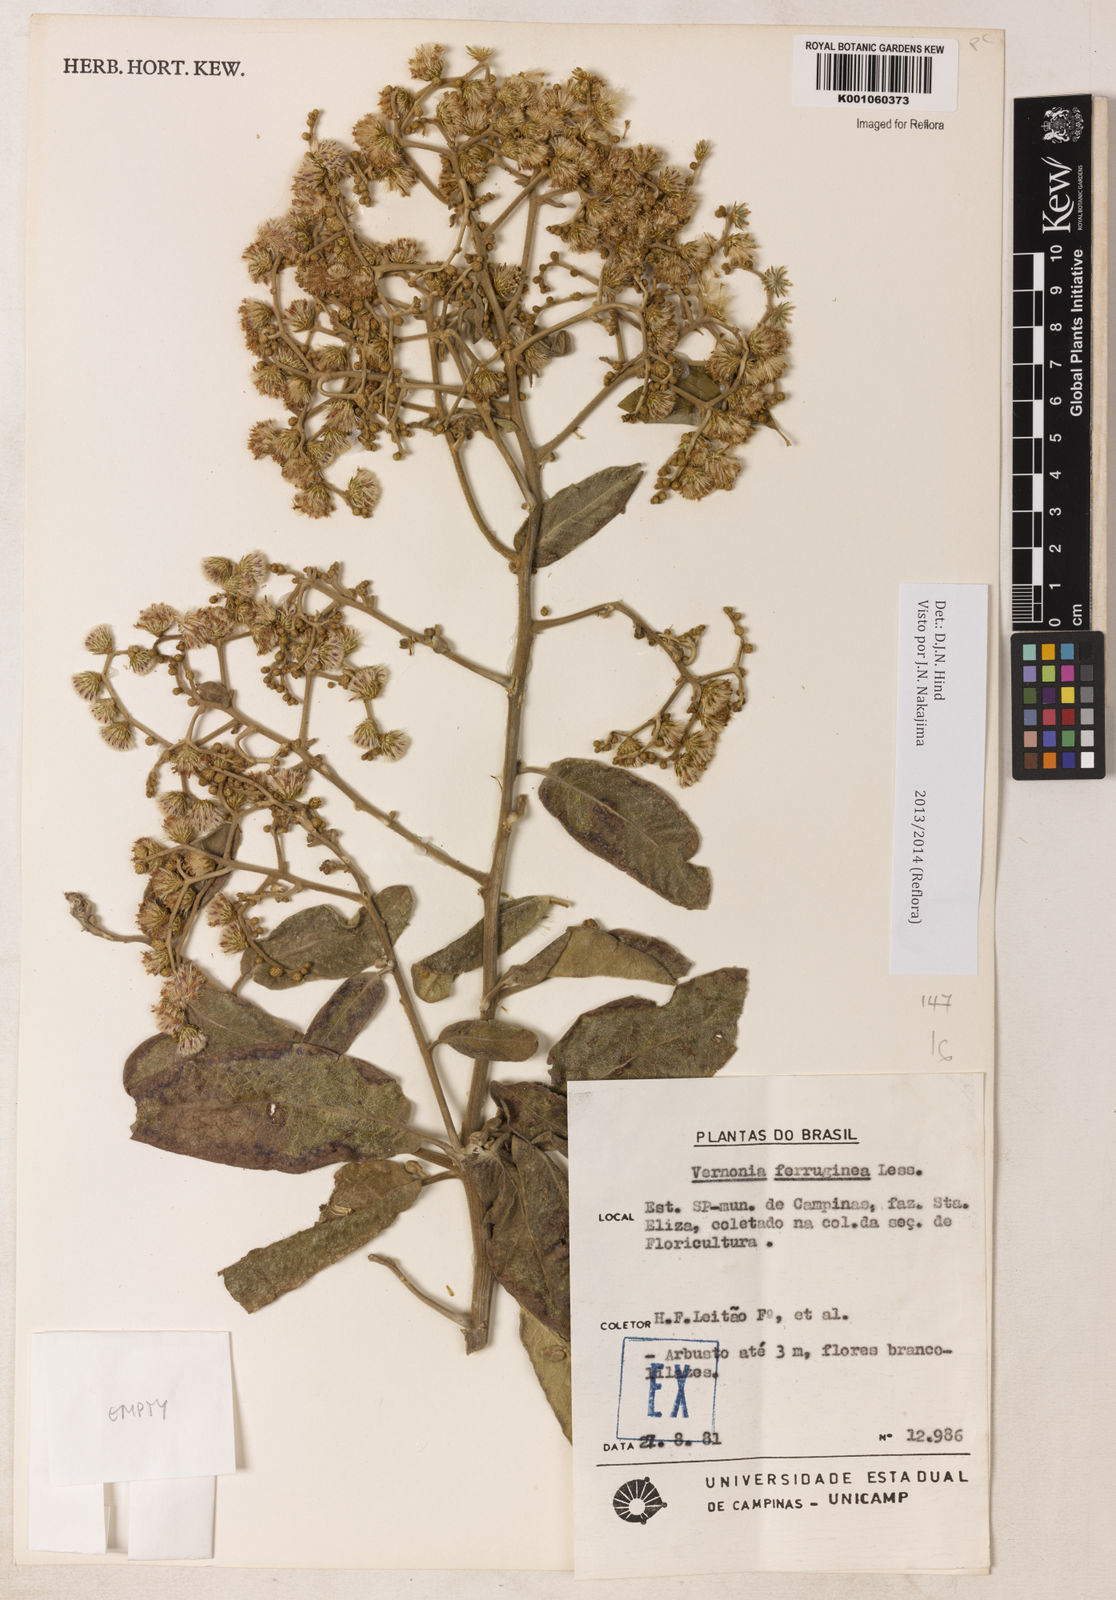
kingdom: Plantae
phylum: Tracheophyta
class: Magnoliopsida
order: Asterales
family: Asteraceae
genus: Vernonanthura
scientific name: Vernonanthura ferruginea
